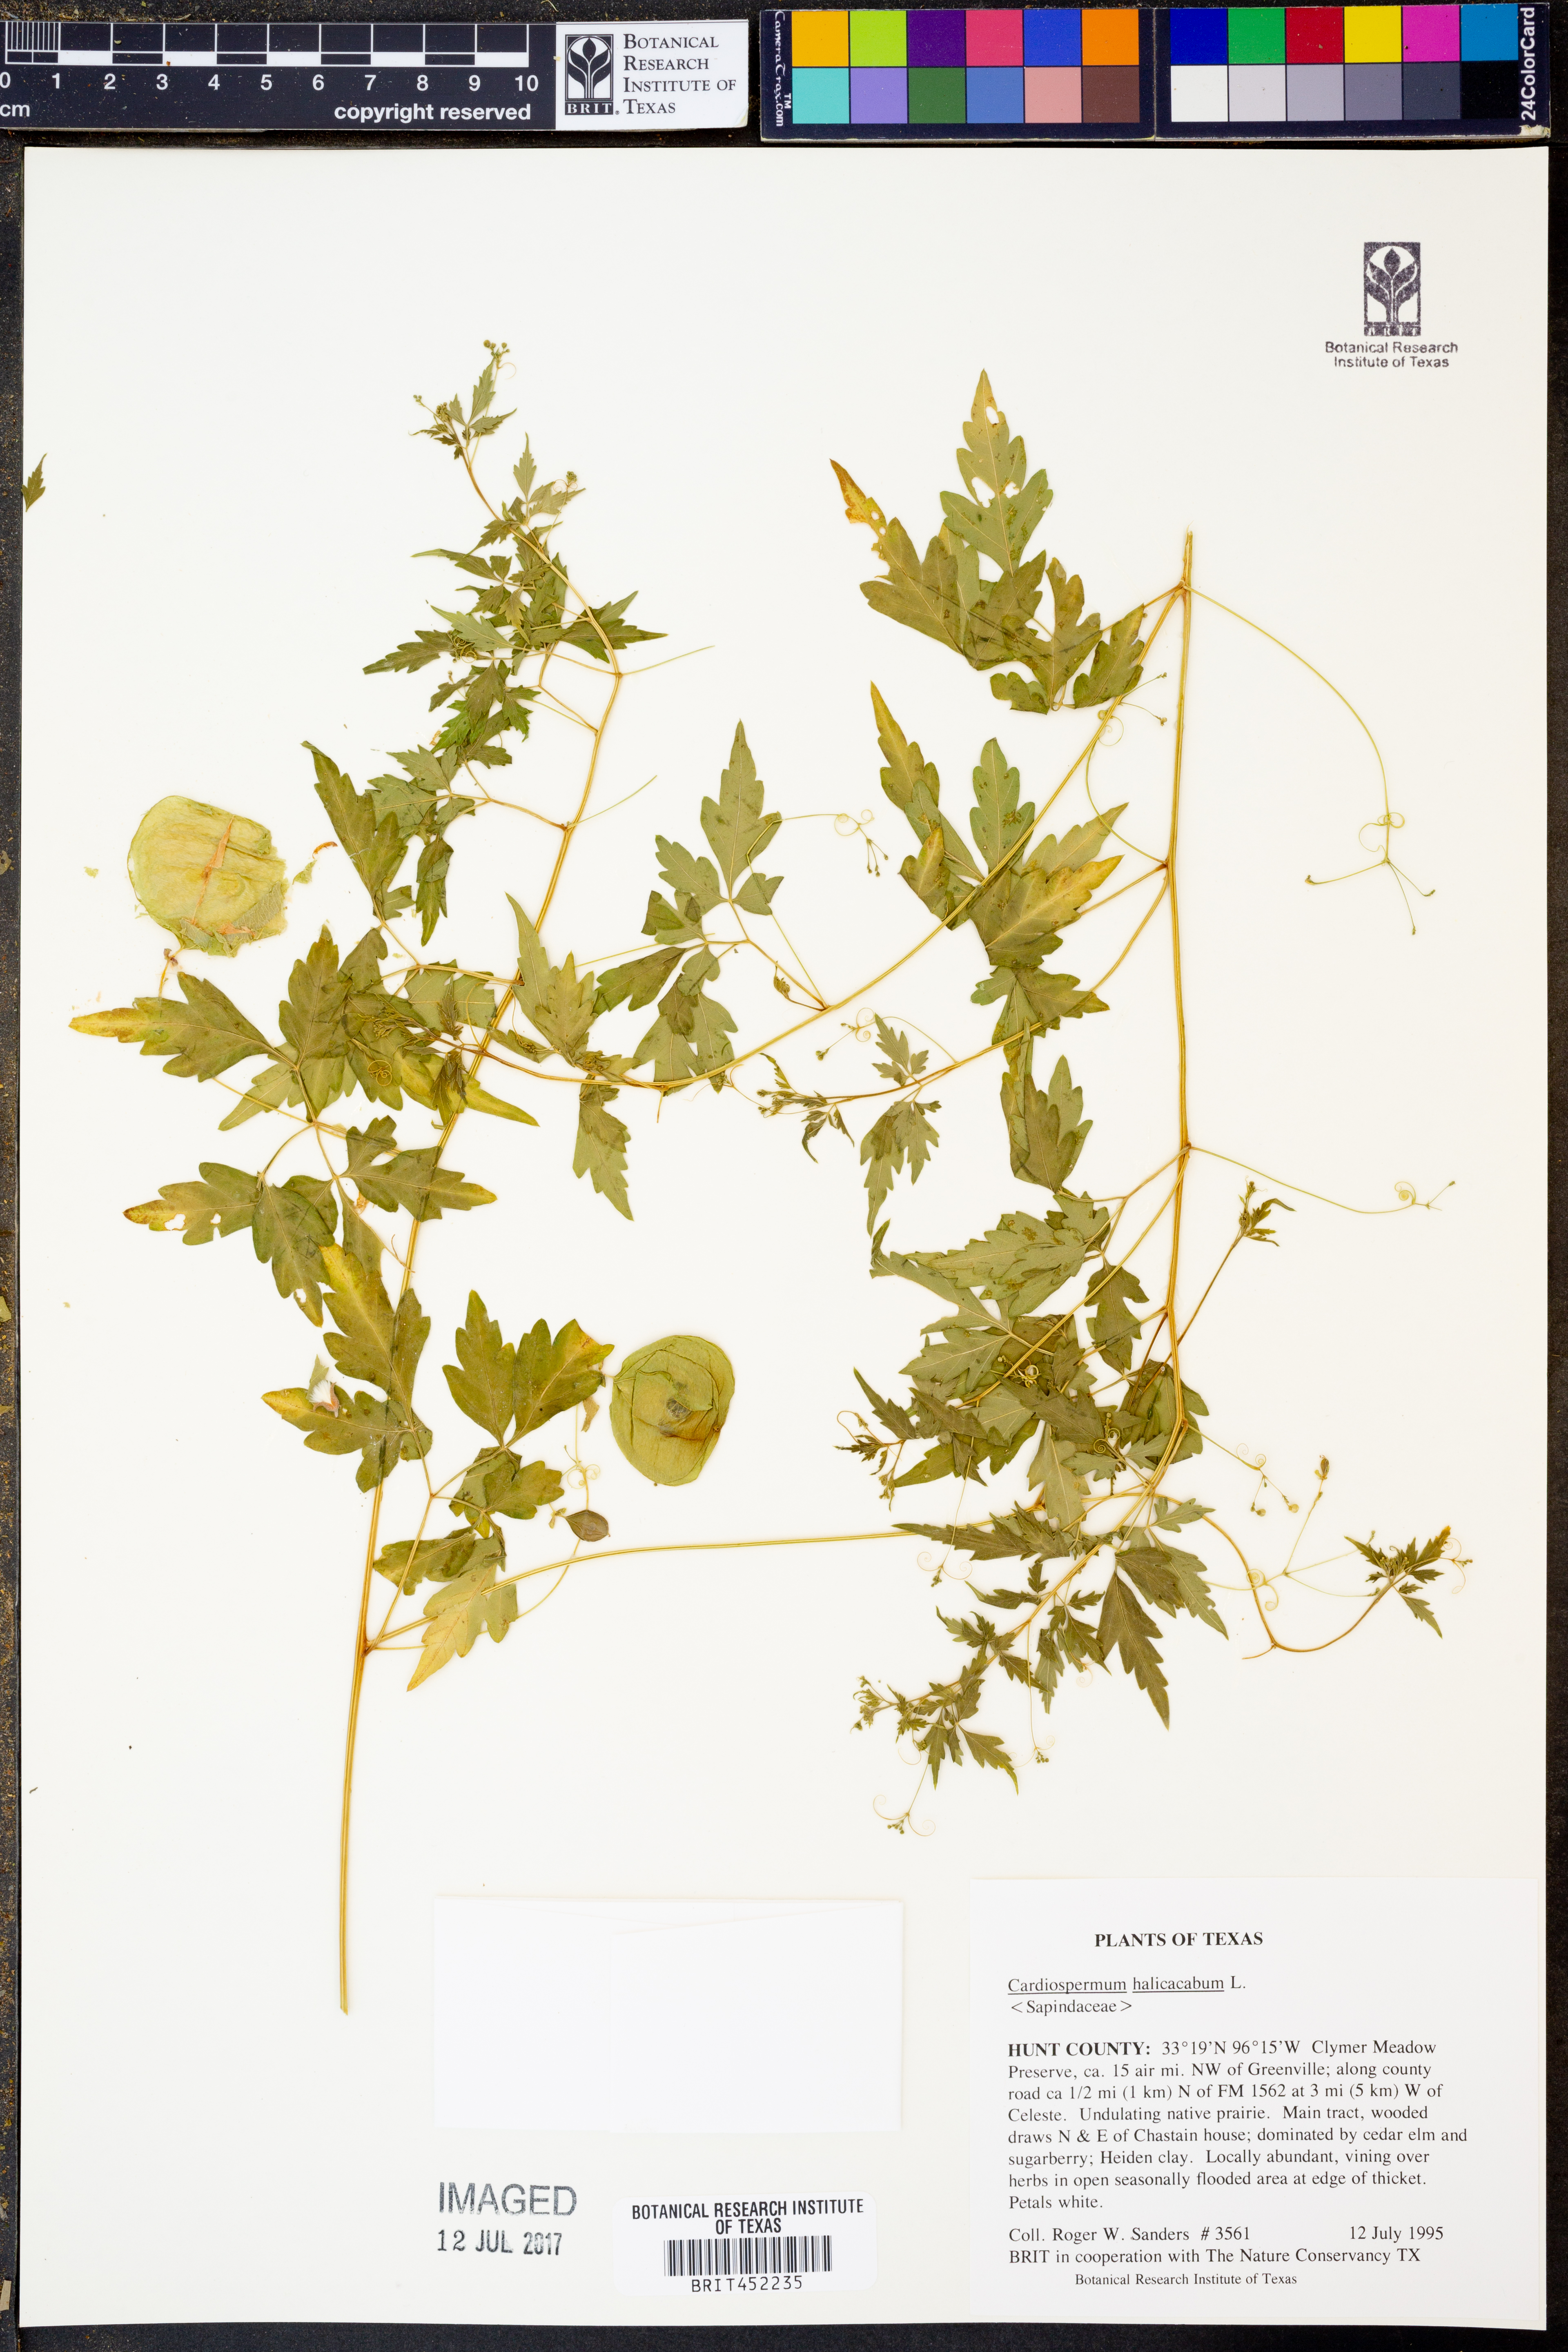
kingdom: Plantae
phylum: Tracheophyta
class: Magnoliopsida
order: Sapindales
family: Sapindaceae
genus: Cardiospermum
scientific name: Cardiospermum halicacabum
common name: Balloon vine
